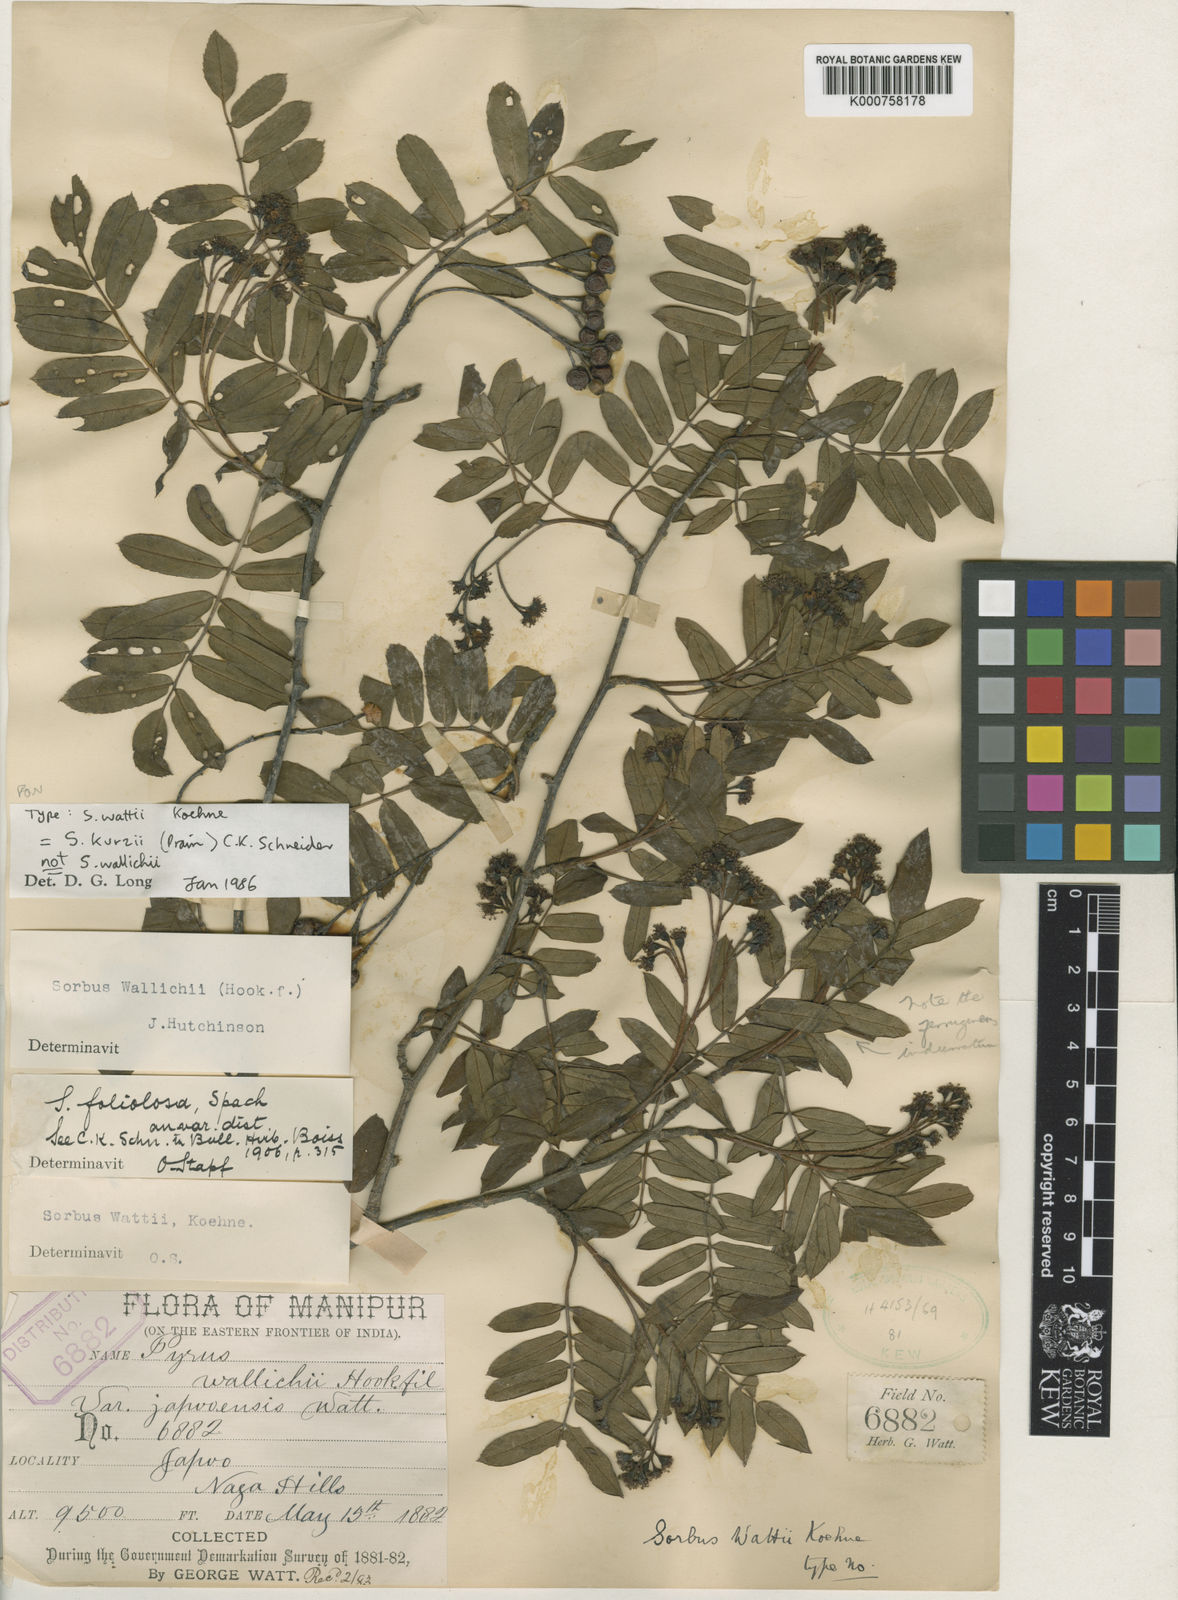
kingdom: Plantae
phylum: Tracheophyta
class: Magnoliopsida
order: Rosales
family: Rosaceae
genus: Sorbus
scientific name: Sorbus wallichii
